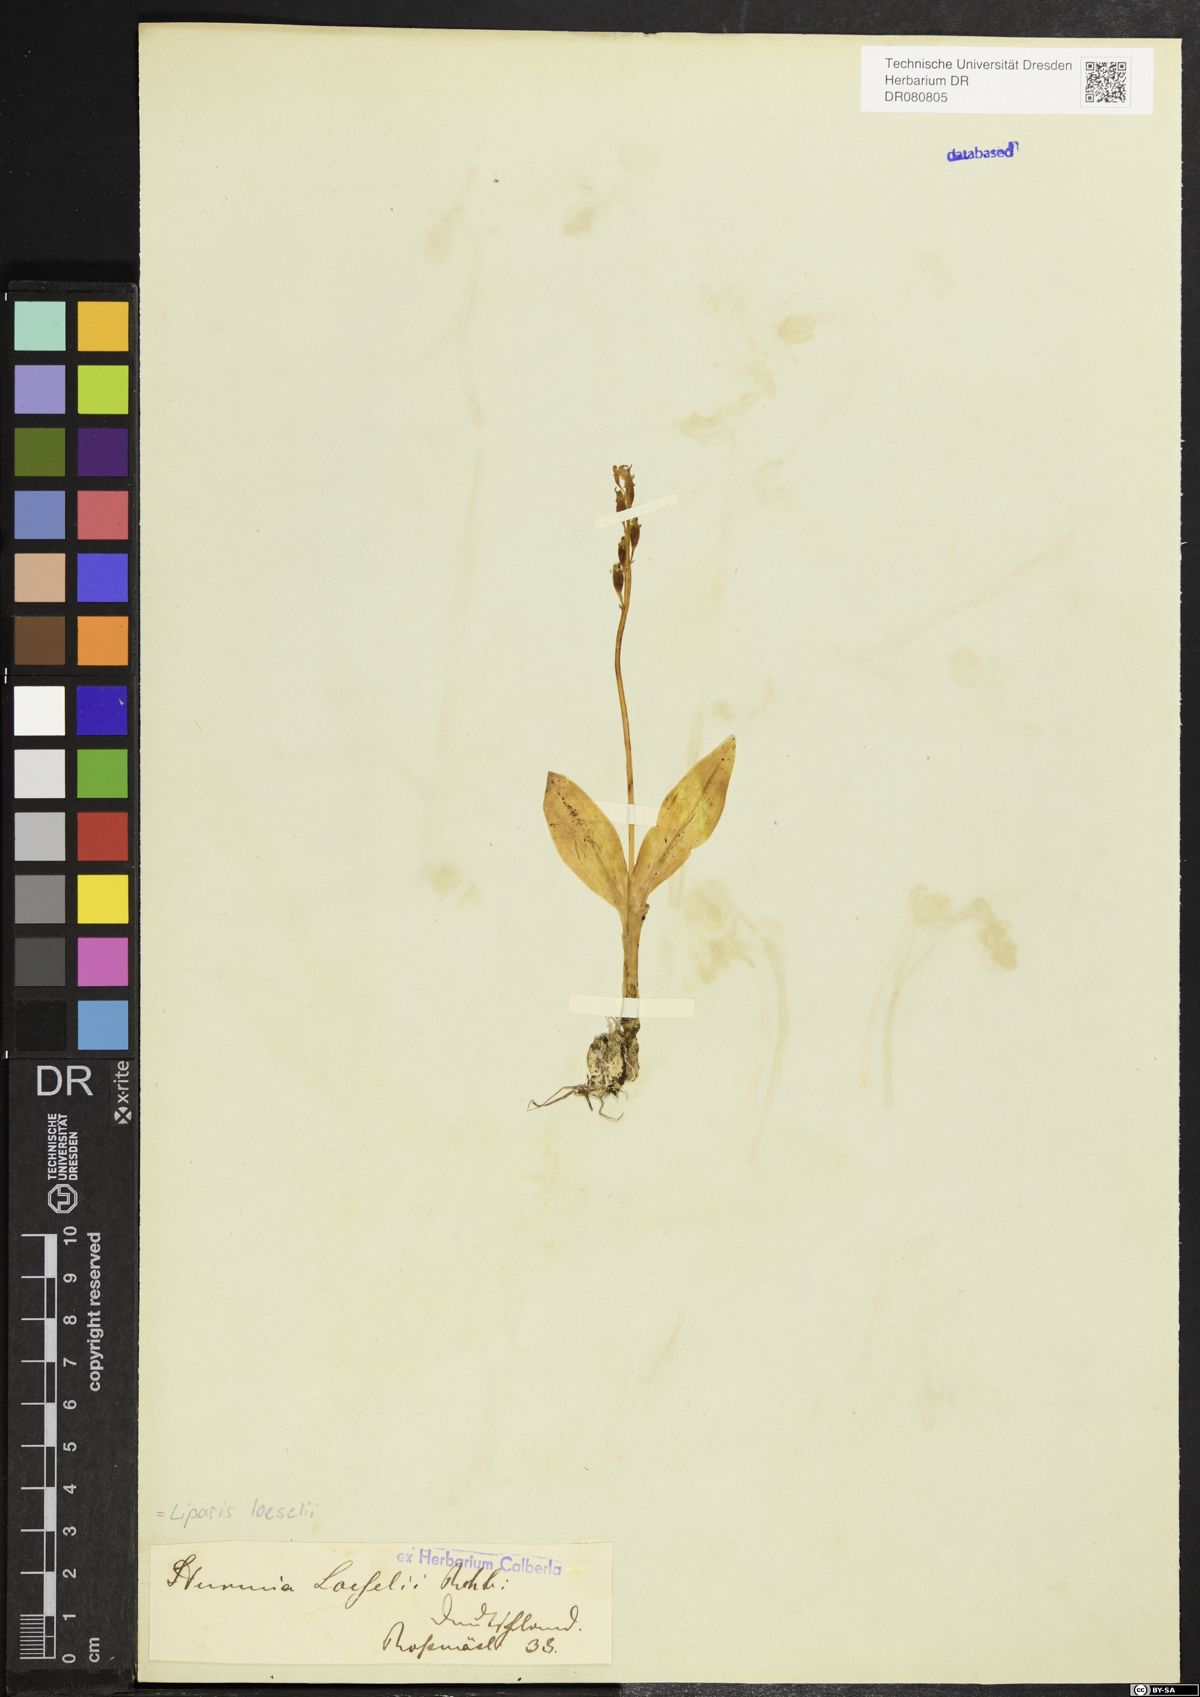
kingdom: Animalia
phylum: Arthropoda
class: Insecta
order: Coleoptera
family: Curculionidae
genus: Liparis
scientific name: Liparis loeselii
